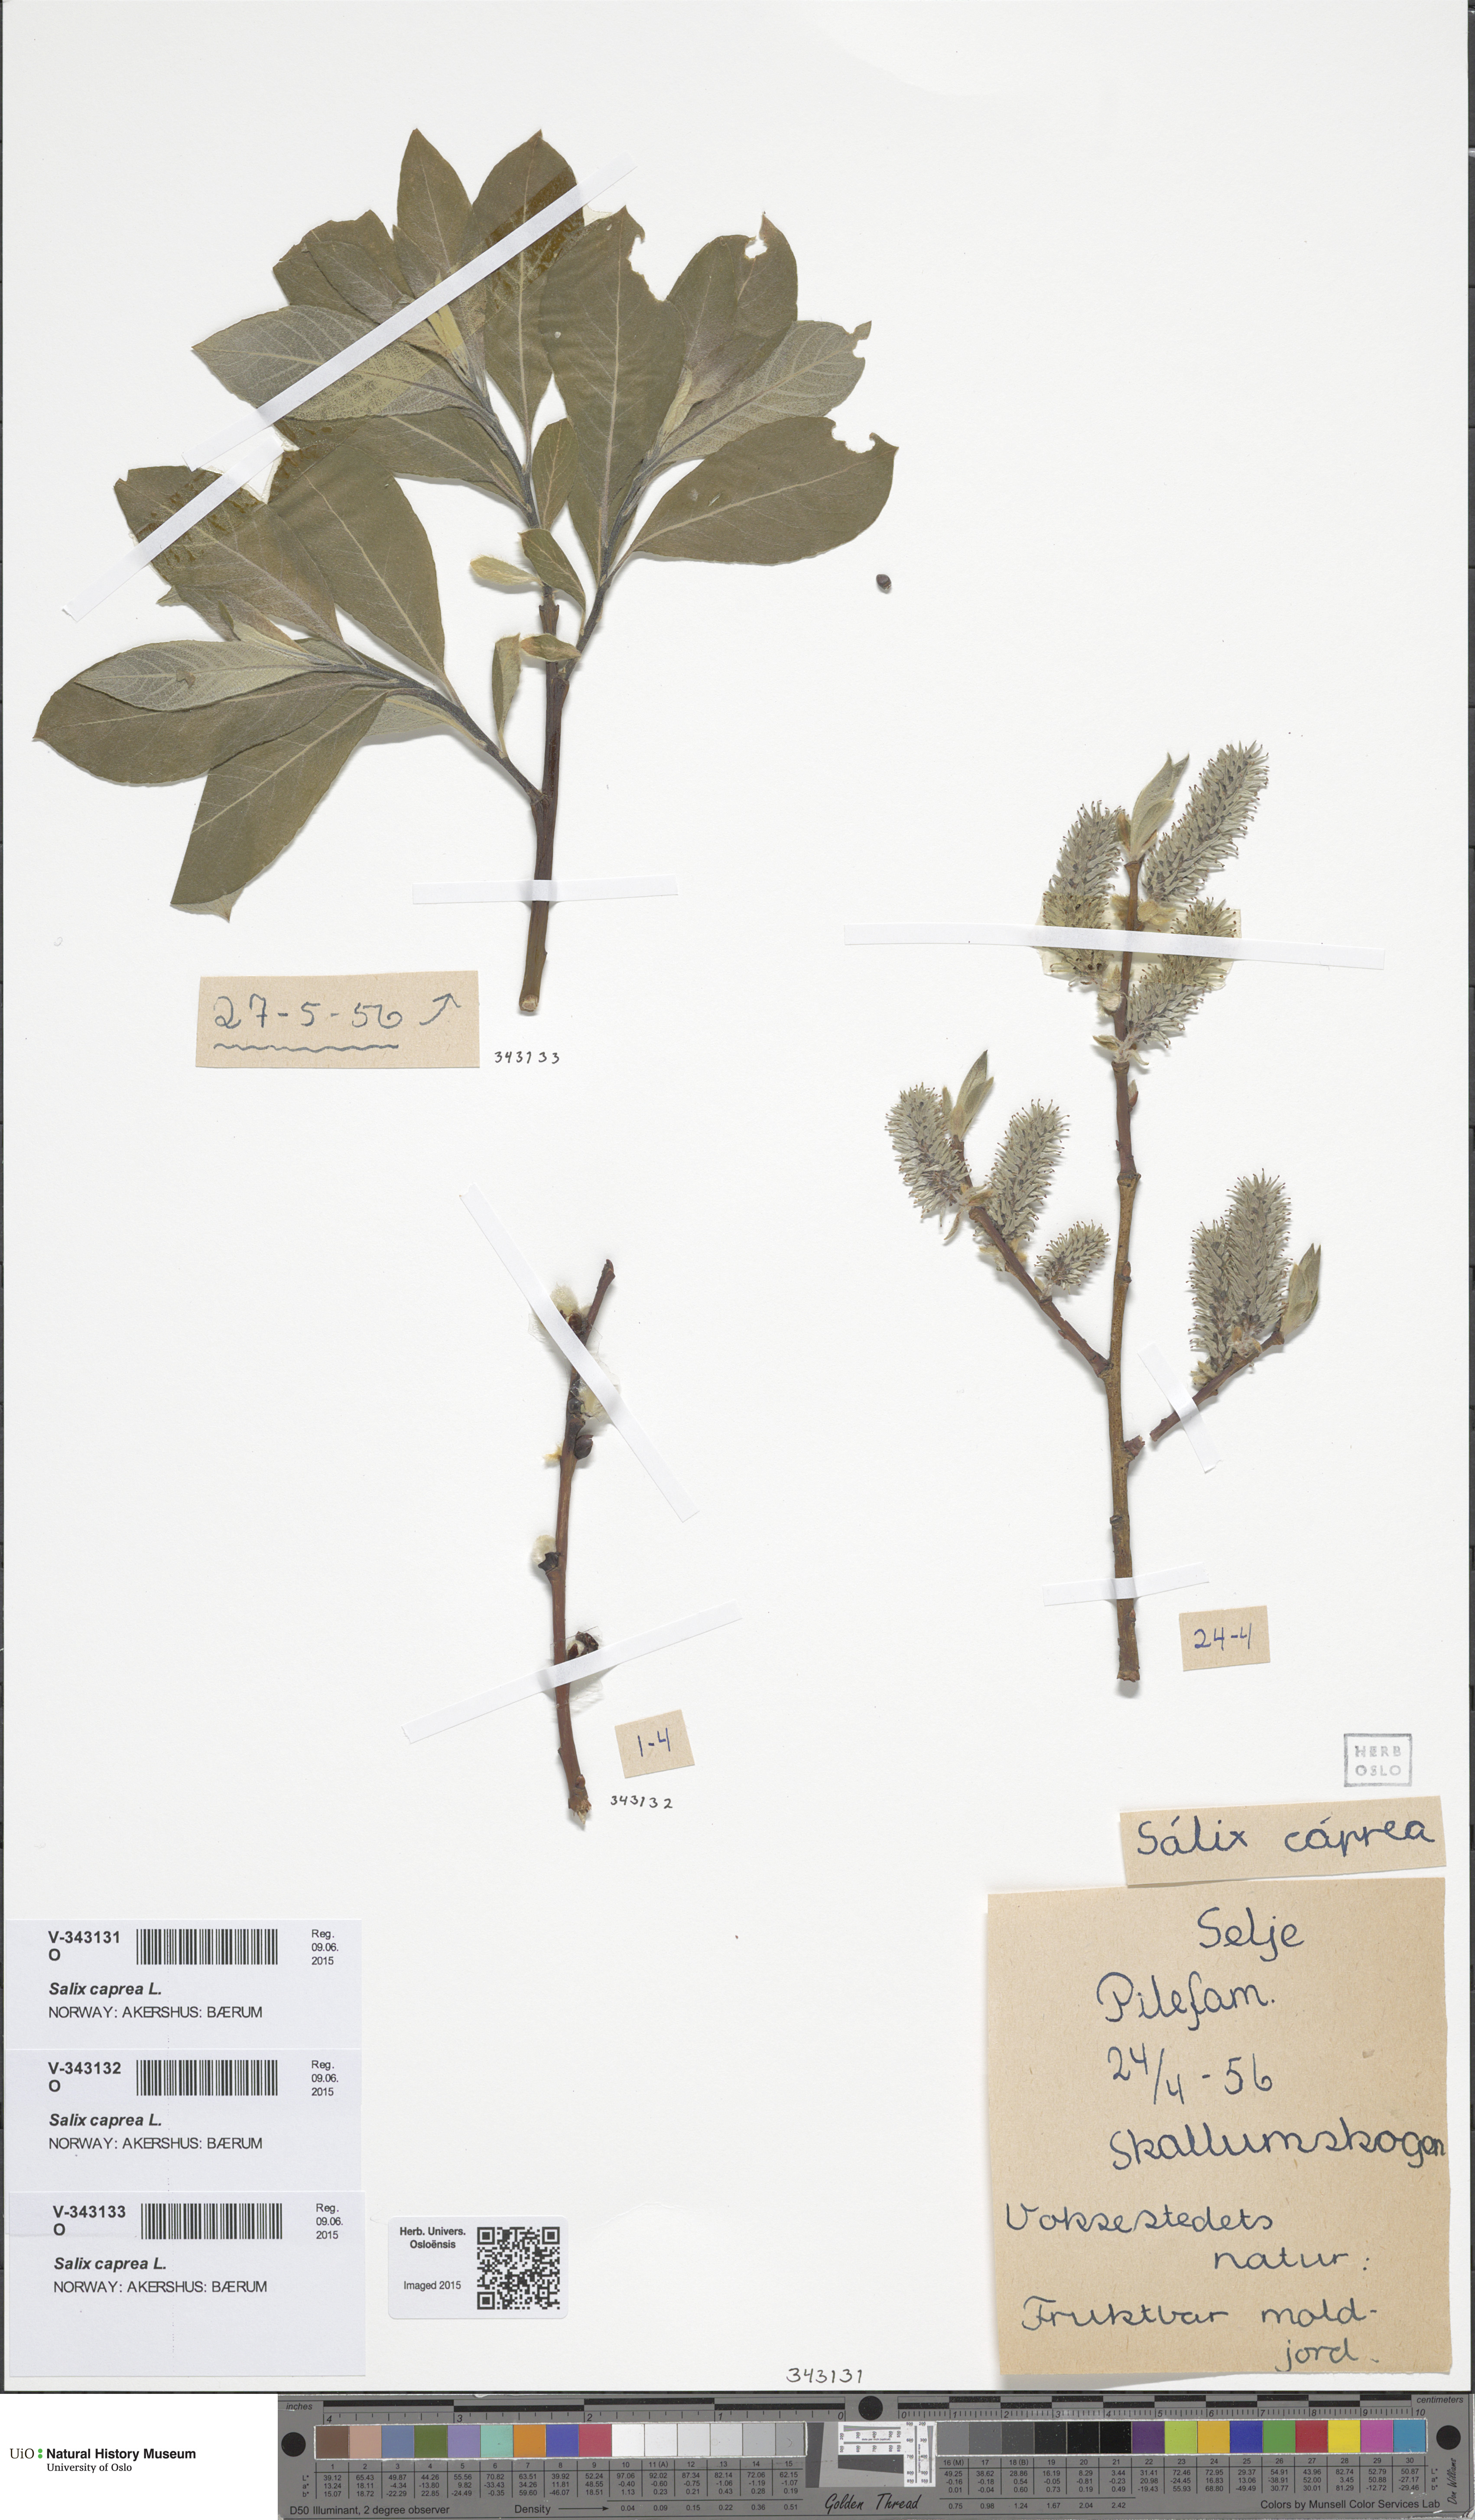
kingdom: Plantae
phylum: Tracheophyta
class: Magnoliopsida
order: Malpighiales
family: Salicaceae
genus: Salix
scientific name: Salix caprea
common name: Goat willow
